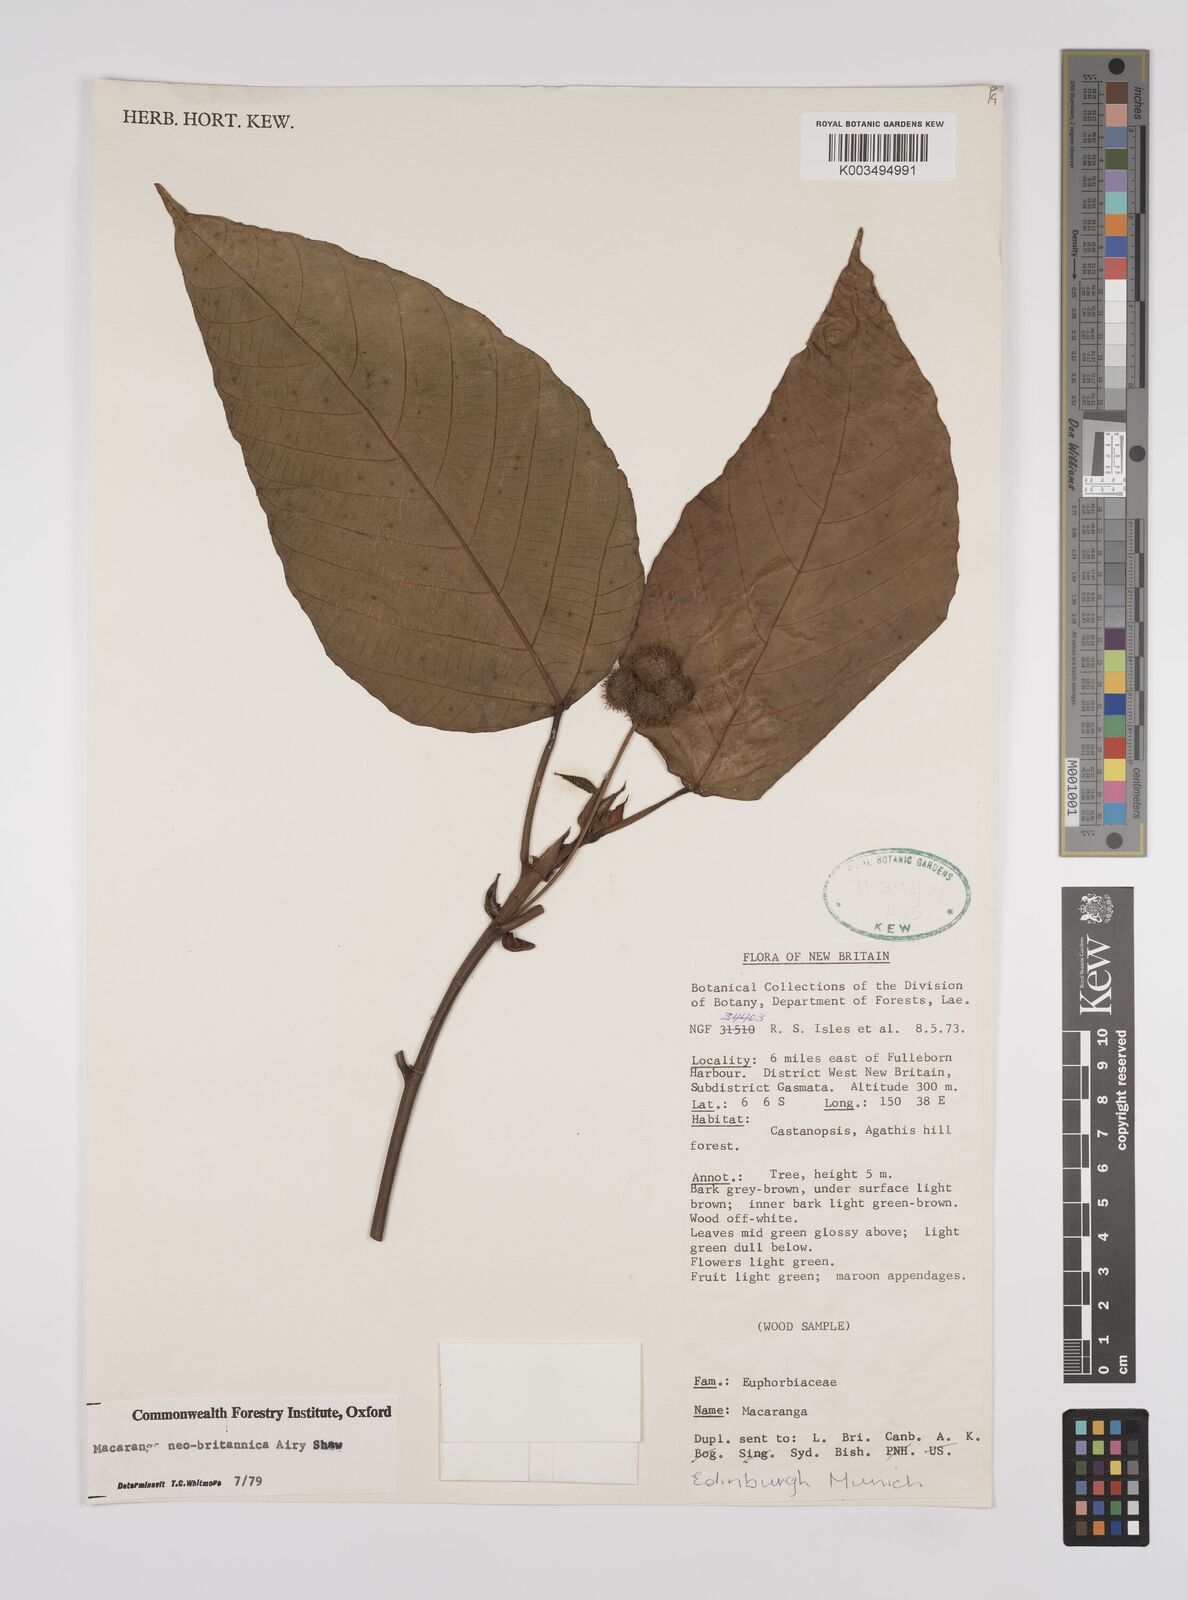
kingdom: Plantae
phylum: Tracheophyta
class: Magnoliopsida
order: Malpighiales
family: Euphorbiaceae
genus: Macaranga
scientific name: Macaranga neobritannica
